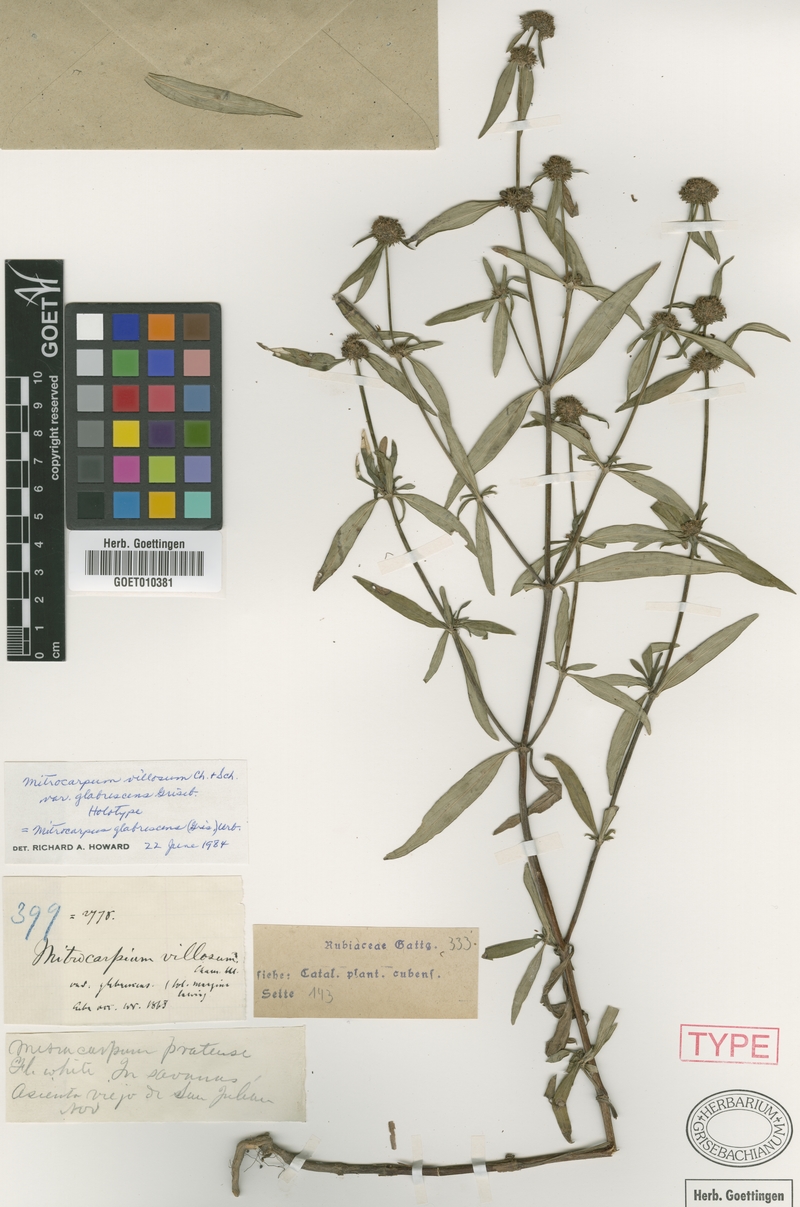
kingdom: Plantae
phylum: Tracheophyta
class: Magnoliopsida
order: Gentianales
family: Rubiaceae
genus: Mitracarpus
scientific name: Mitracarpus linearifolius
